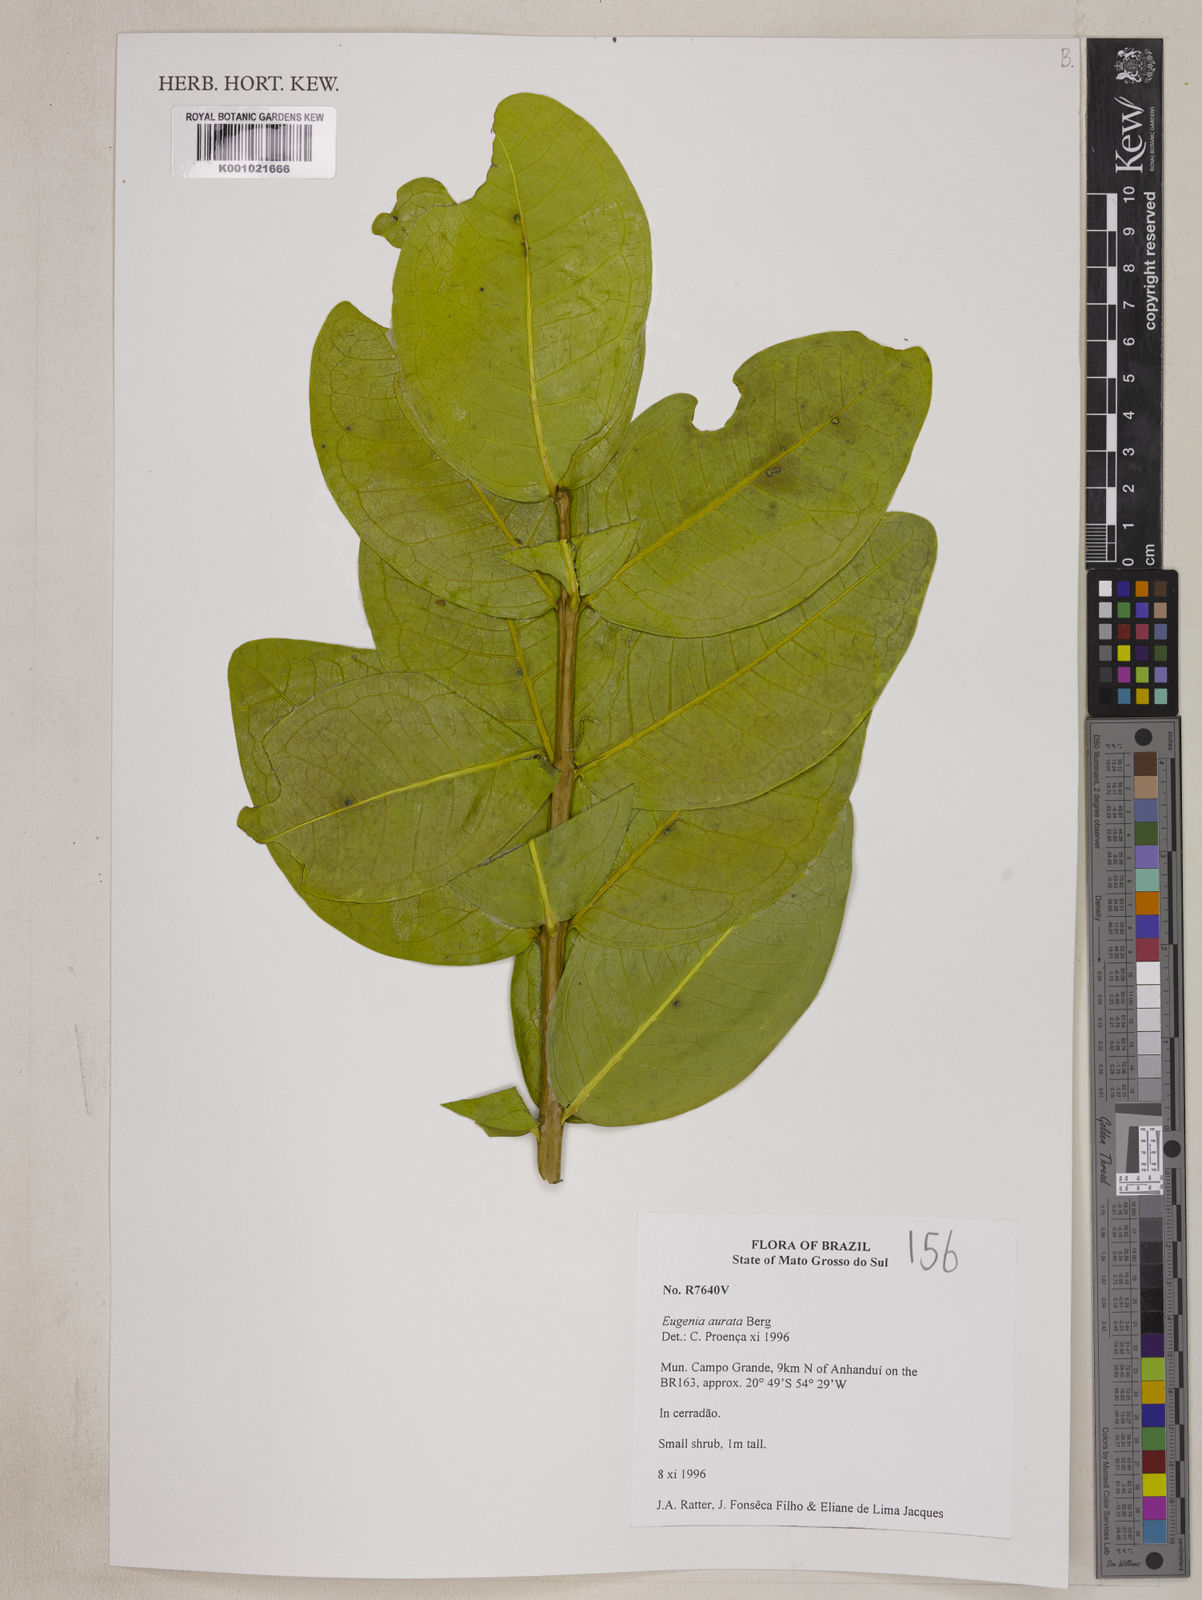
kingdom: Plantae
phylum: Tracheophyta
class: Magnoliopsida
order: Myrtales
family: Myrtaceae
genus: Eugenia
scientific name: Eugenia aurata
